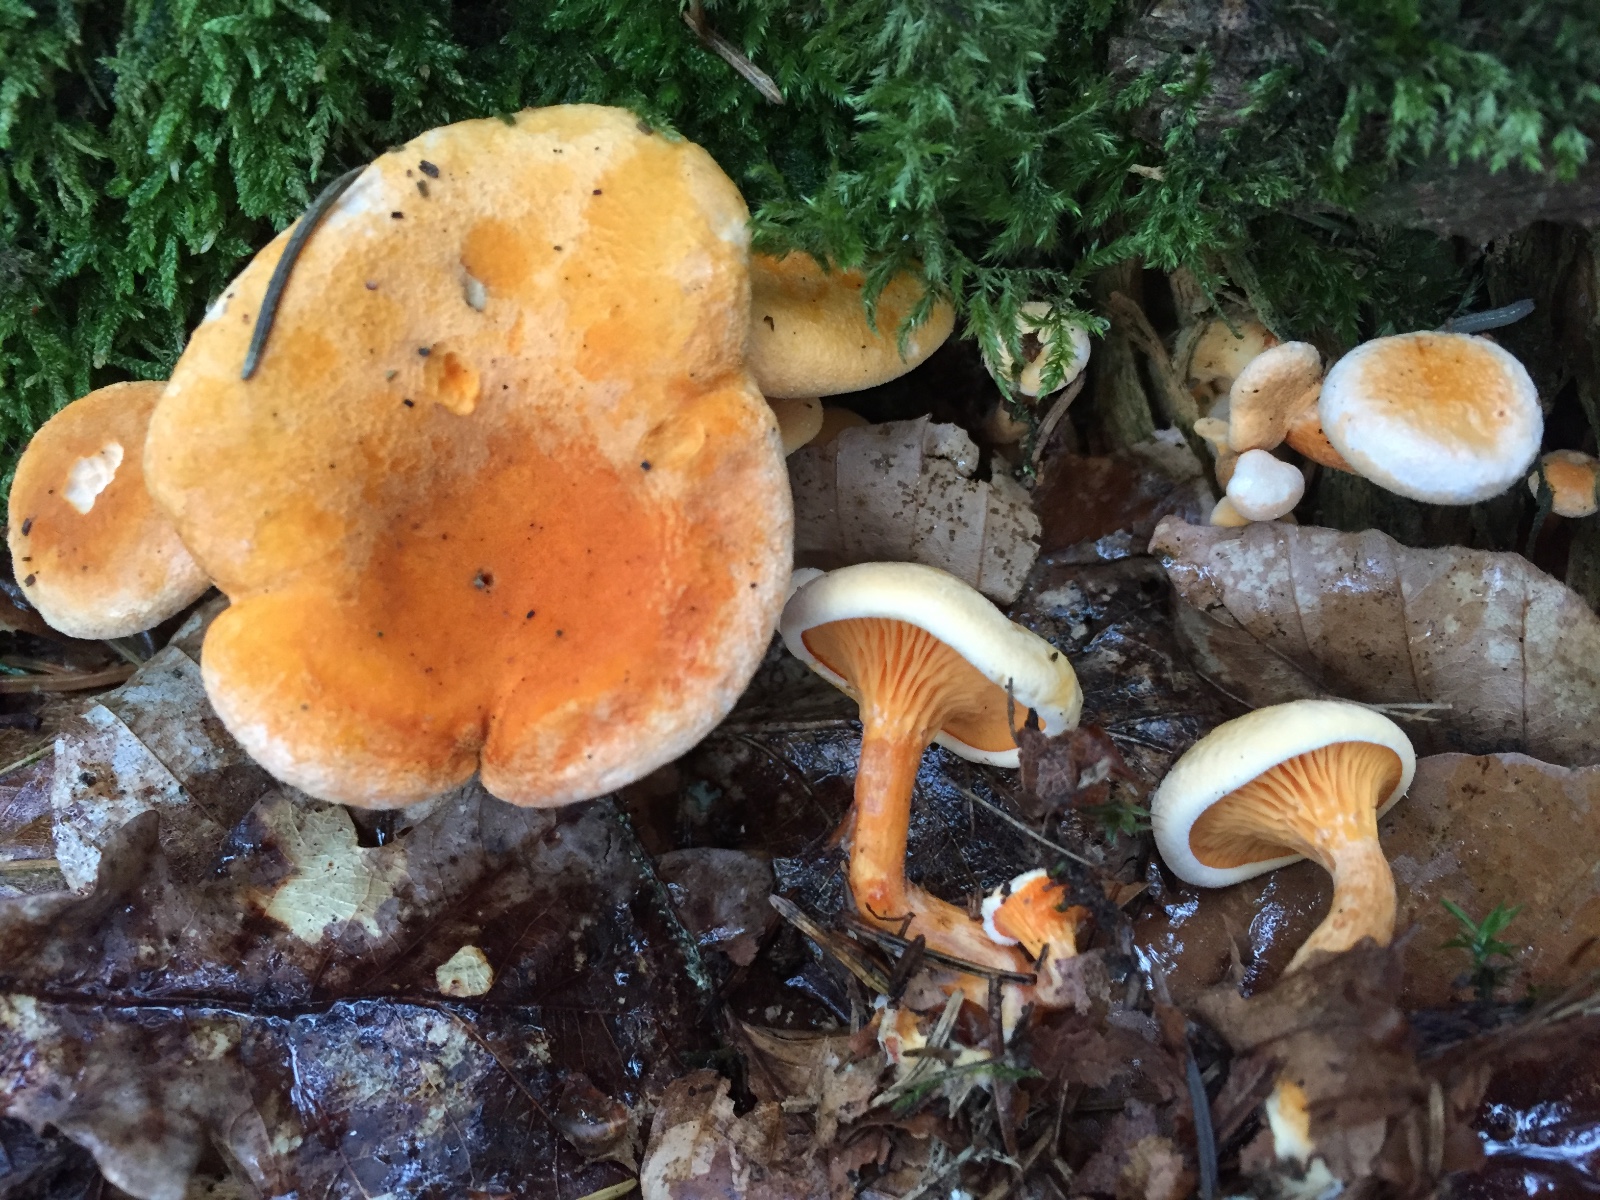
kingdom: Fungi
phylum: Basidiomycota
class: Agaricomycetes
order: Boletales
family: Hygrophoropsidaceae
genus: Hygrophoropsis
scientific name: Hygrophoropsis aurantiaca
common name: almindelig orangekantarel
